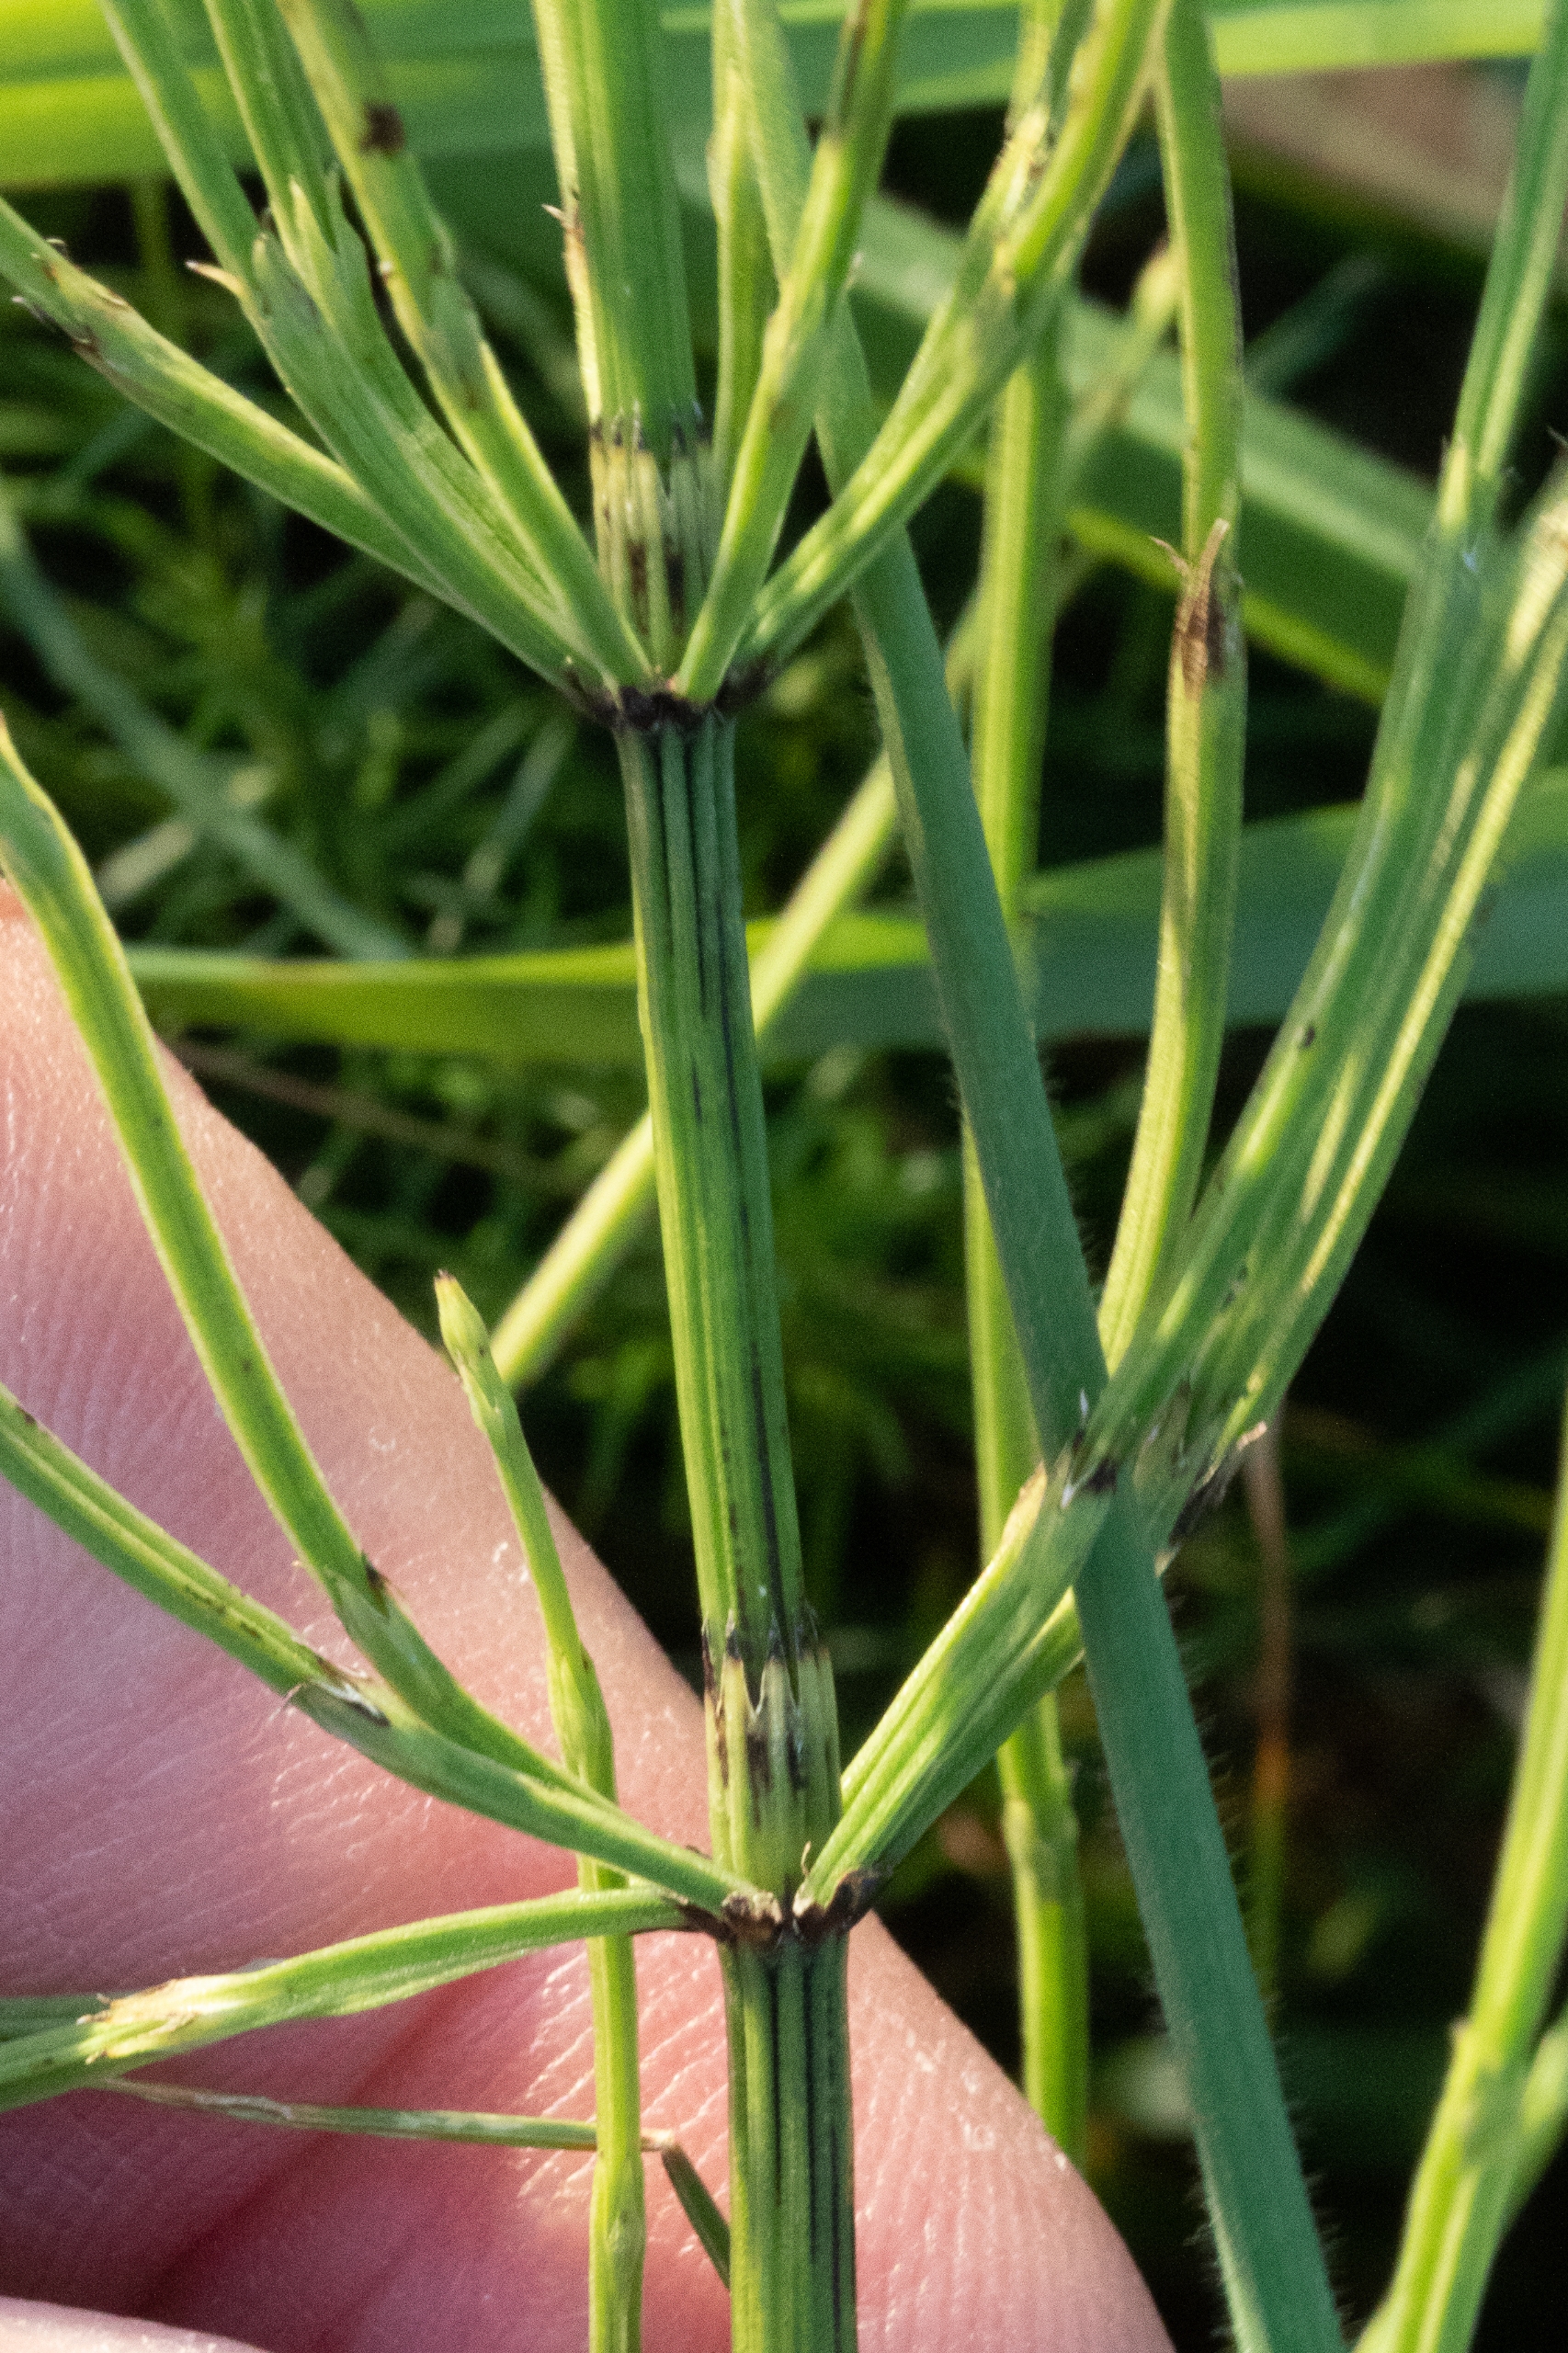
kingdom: Plantae
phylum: Tracheophyta
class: Polypodiopsida
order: Equisetales
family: Equisetaceae
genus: Equisetum
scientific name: Equisetum arvense
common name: Ager-padderok
